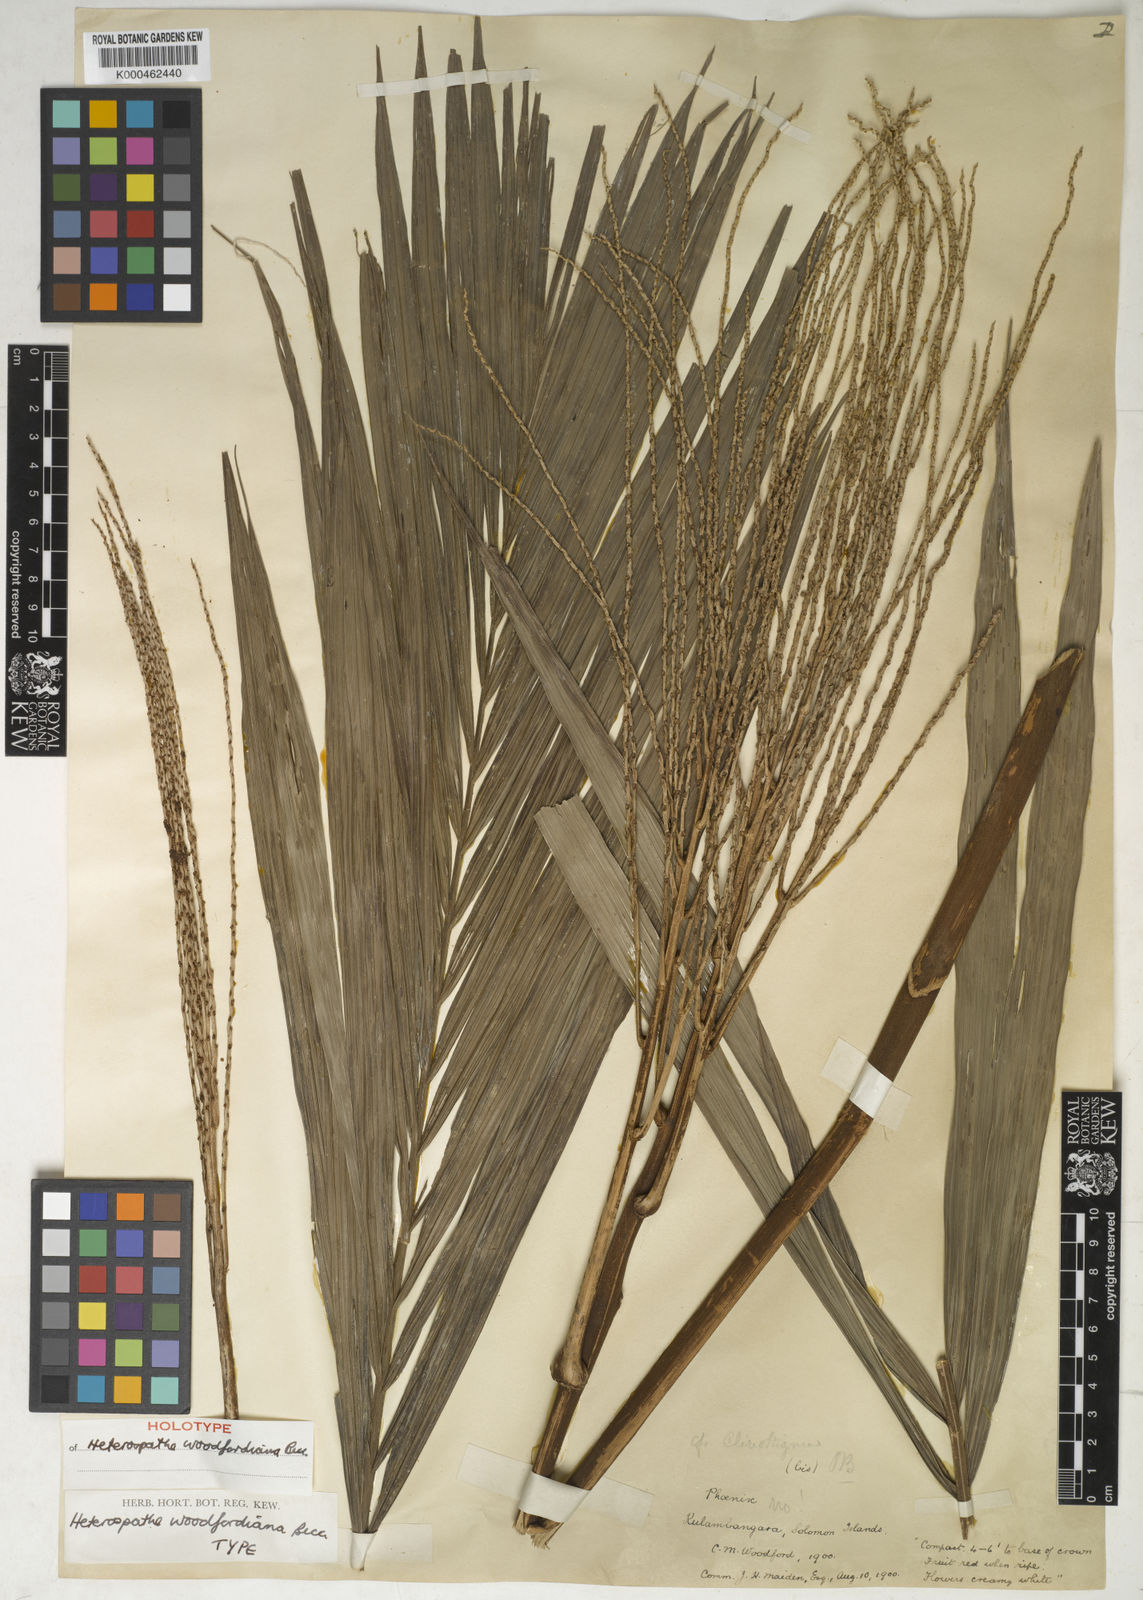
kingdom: Plantae
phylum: Tracheophyta
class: Liliopsida
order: Arecales
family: Arecaceae
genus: Heterospathe
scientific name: Heterospathe woodfordiana
